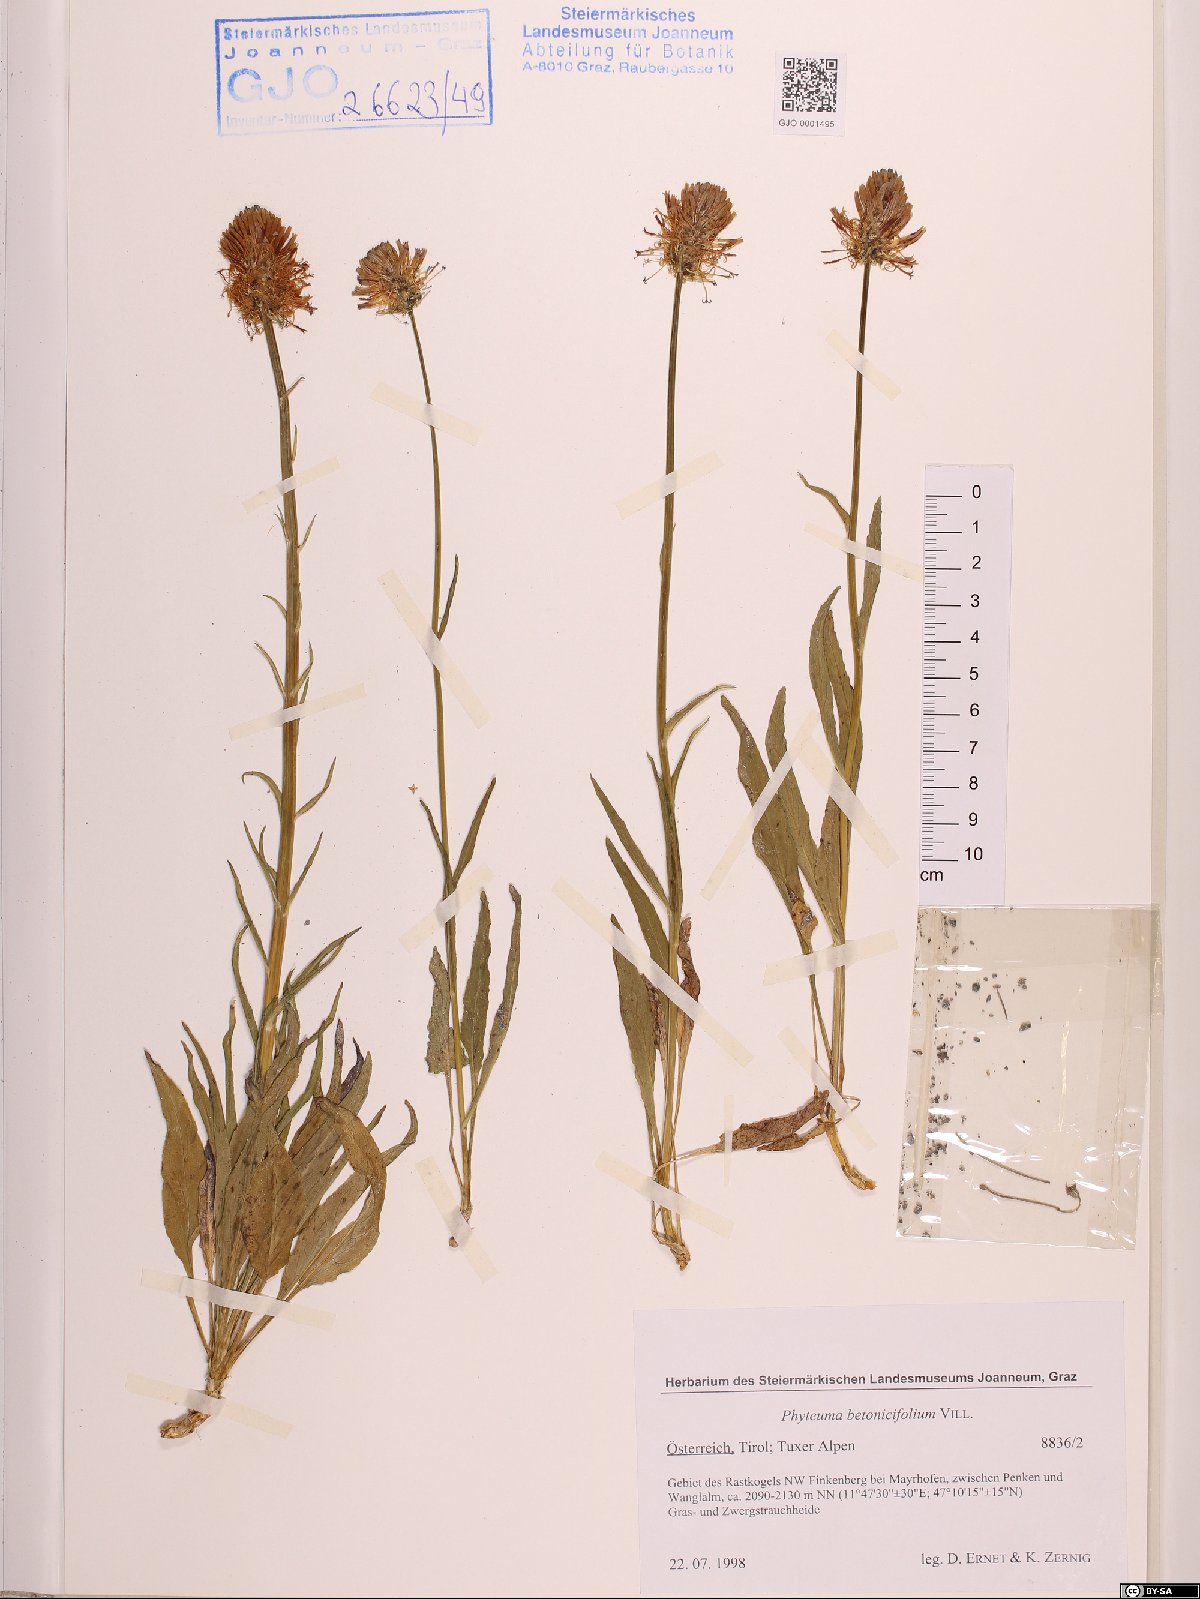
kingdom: Plantae
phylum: Tracheophyta
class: Magnoliopsida
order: Asterales
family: Campanulaceae
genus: Phyteuma
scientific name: Phyteuma betonicifolium
